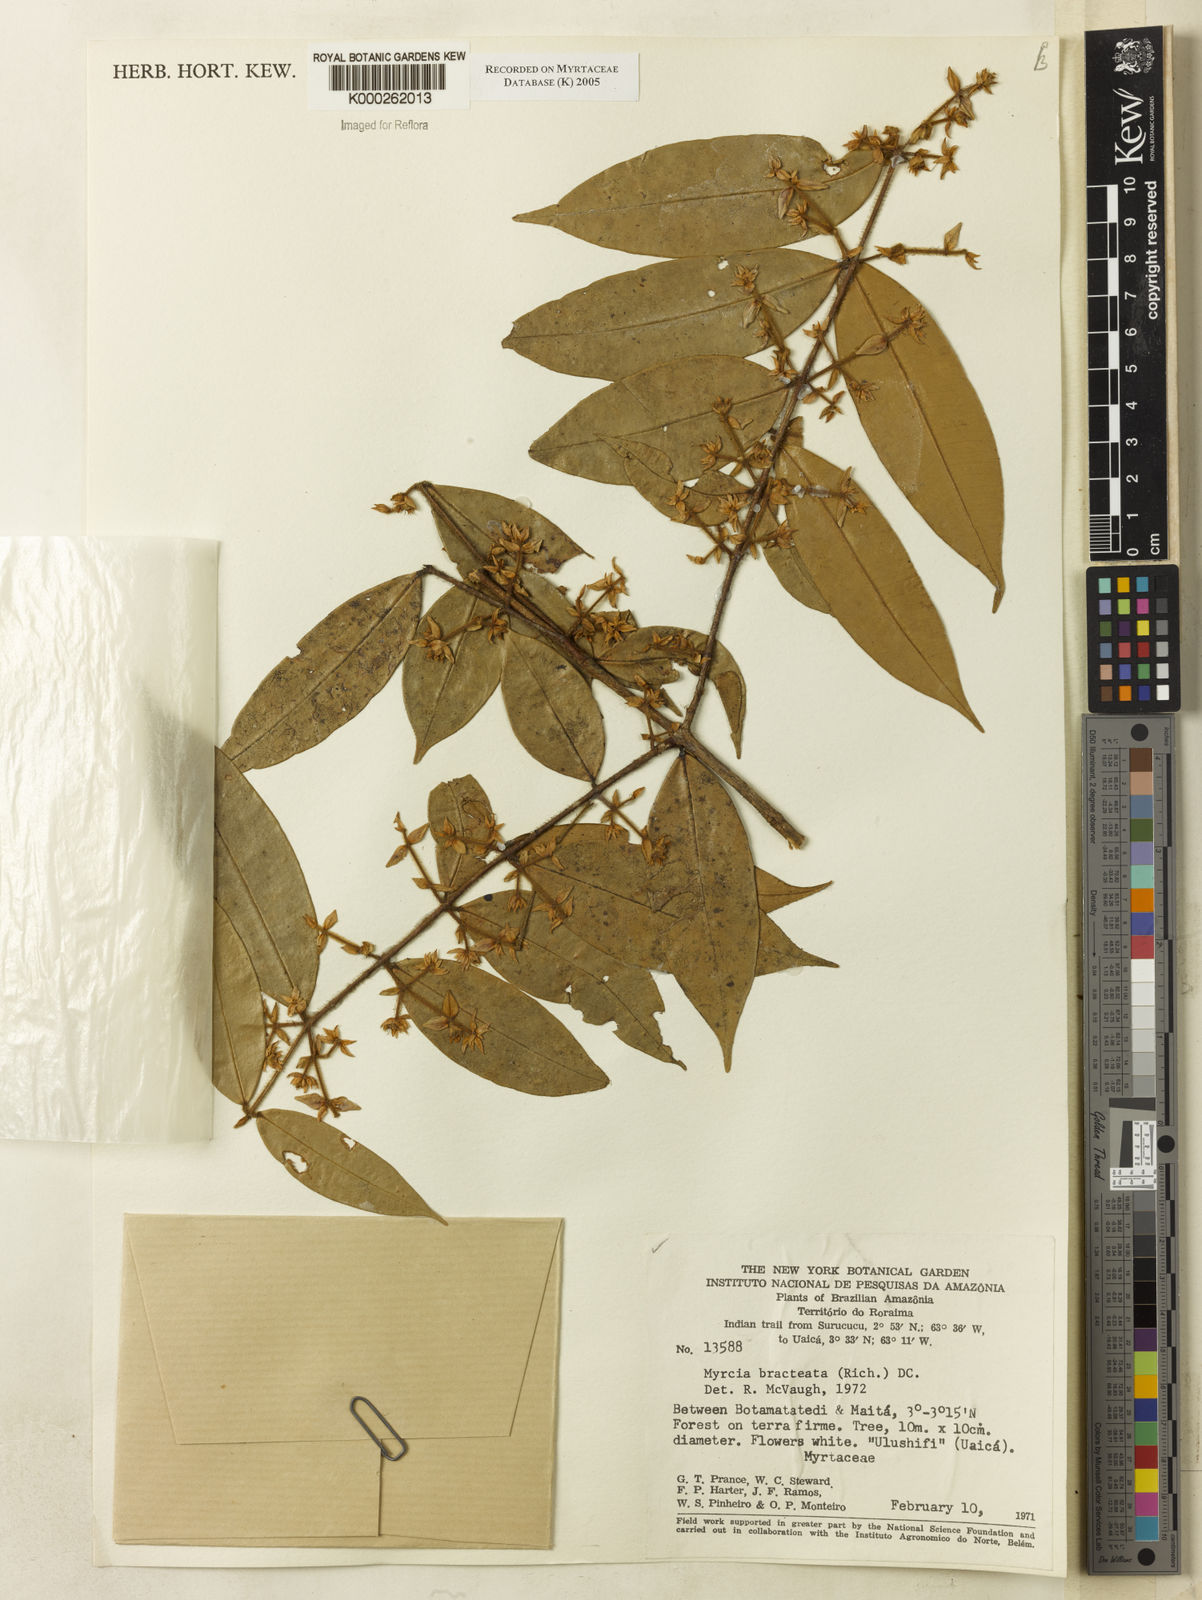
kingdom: Plantae
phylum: Tracheophyta
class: Magnoliopsida
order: Myrtales
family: Myrtaceae
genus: Myrcia
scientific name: Myrcia bracteata
